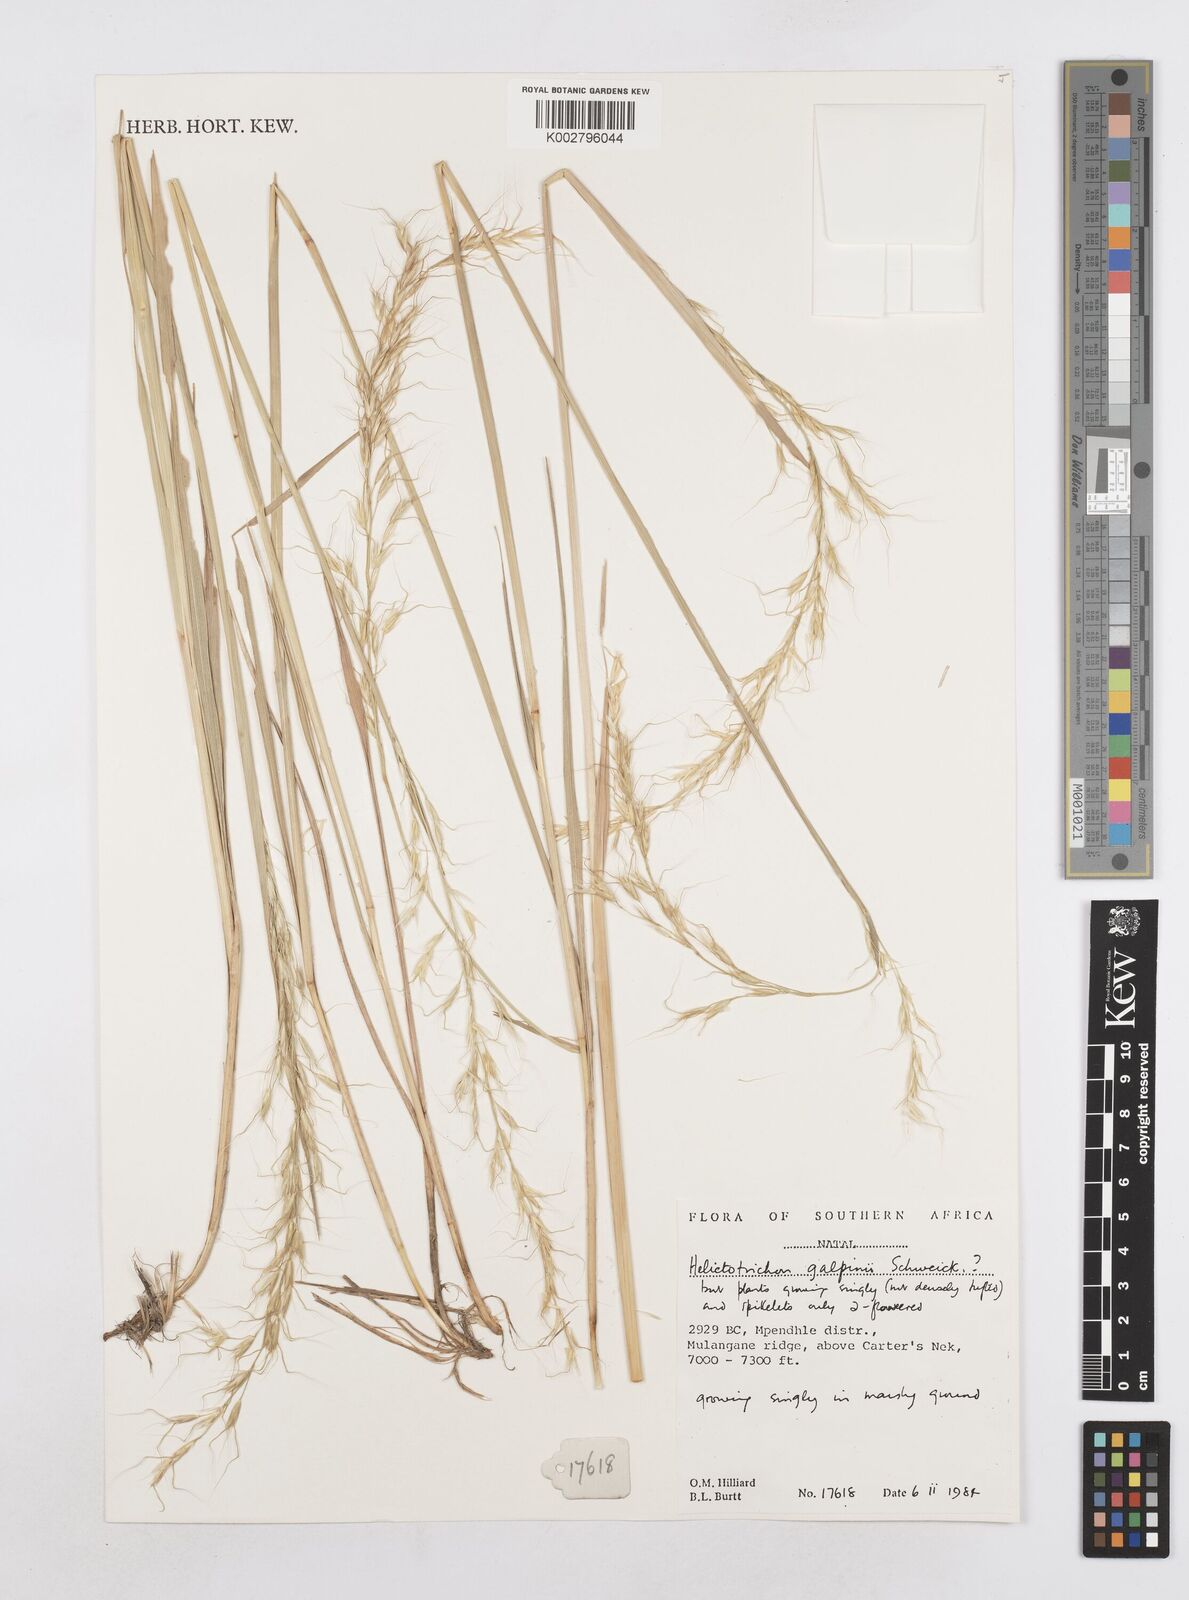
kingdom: Plantae
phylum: Tracheophyta
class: Liliopsida
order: Poales
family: Poaceae
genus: Trisetopsis
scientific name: Trisetopsis galpinii
